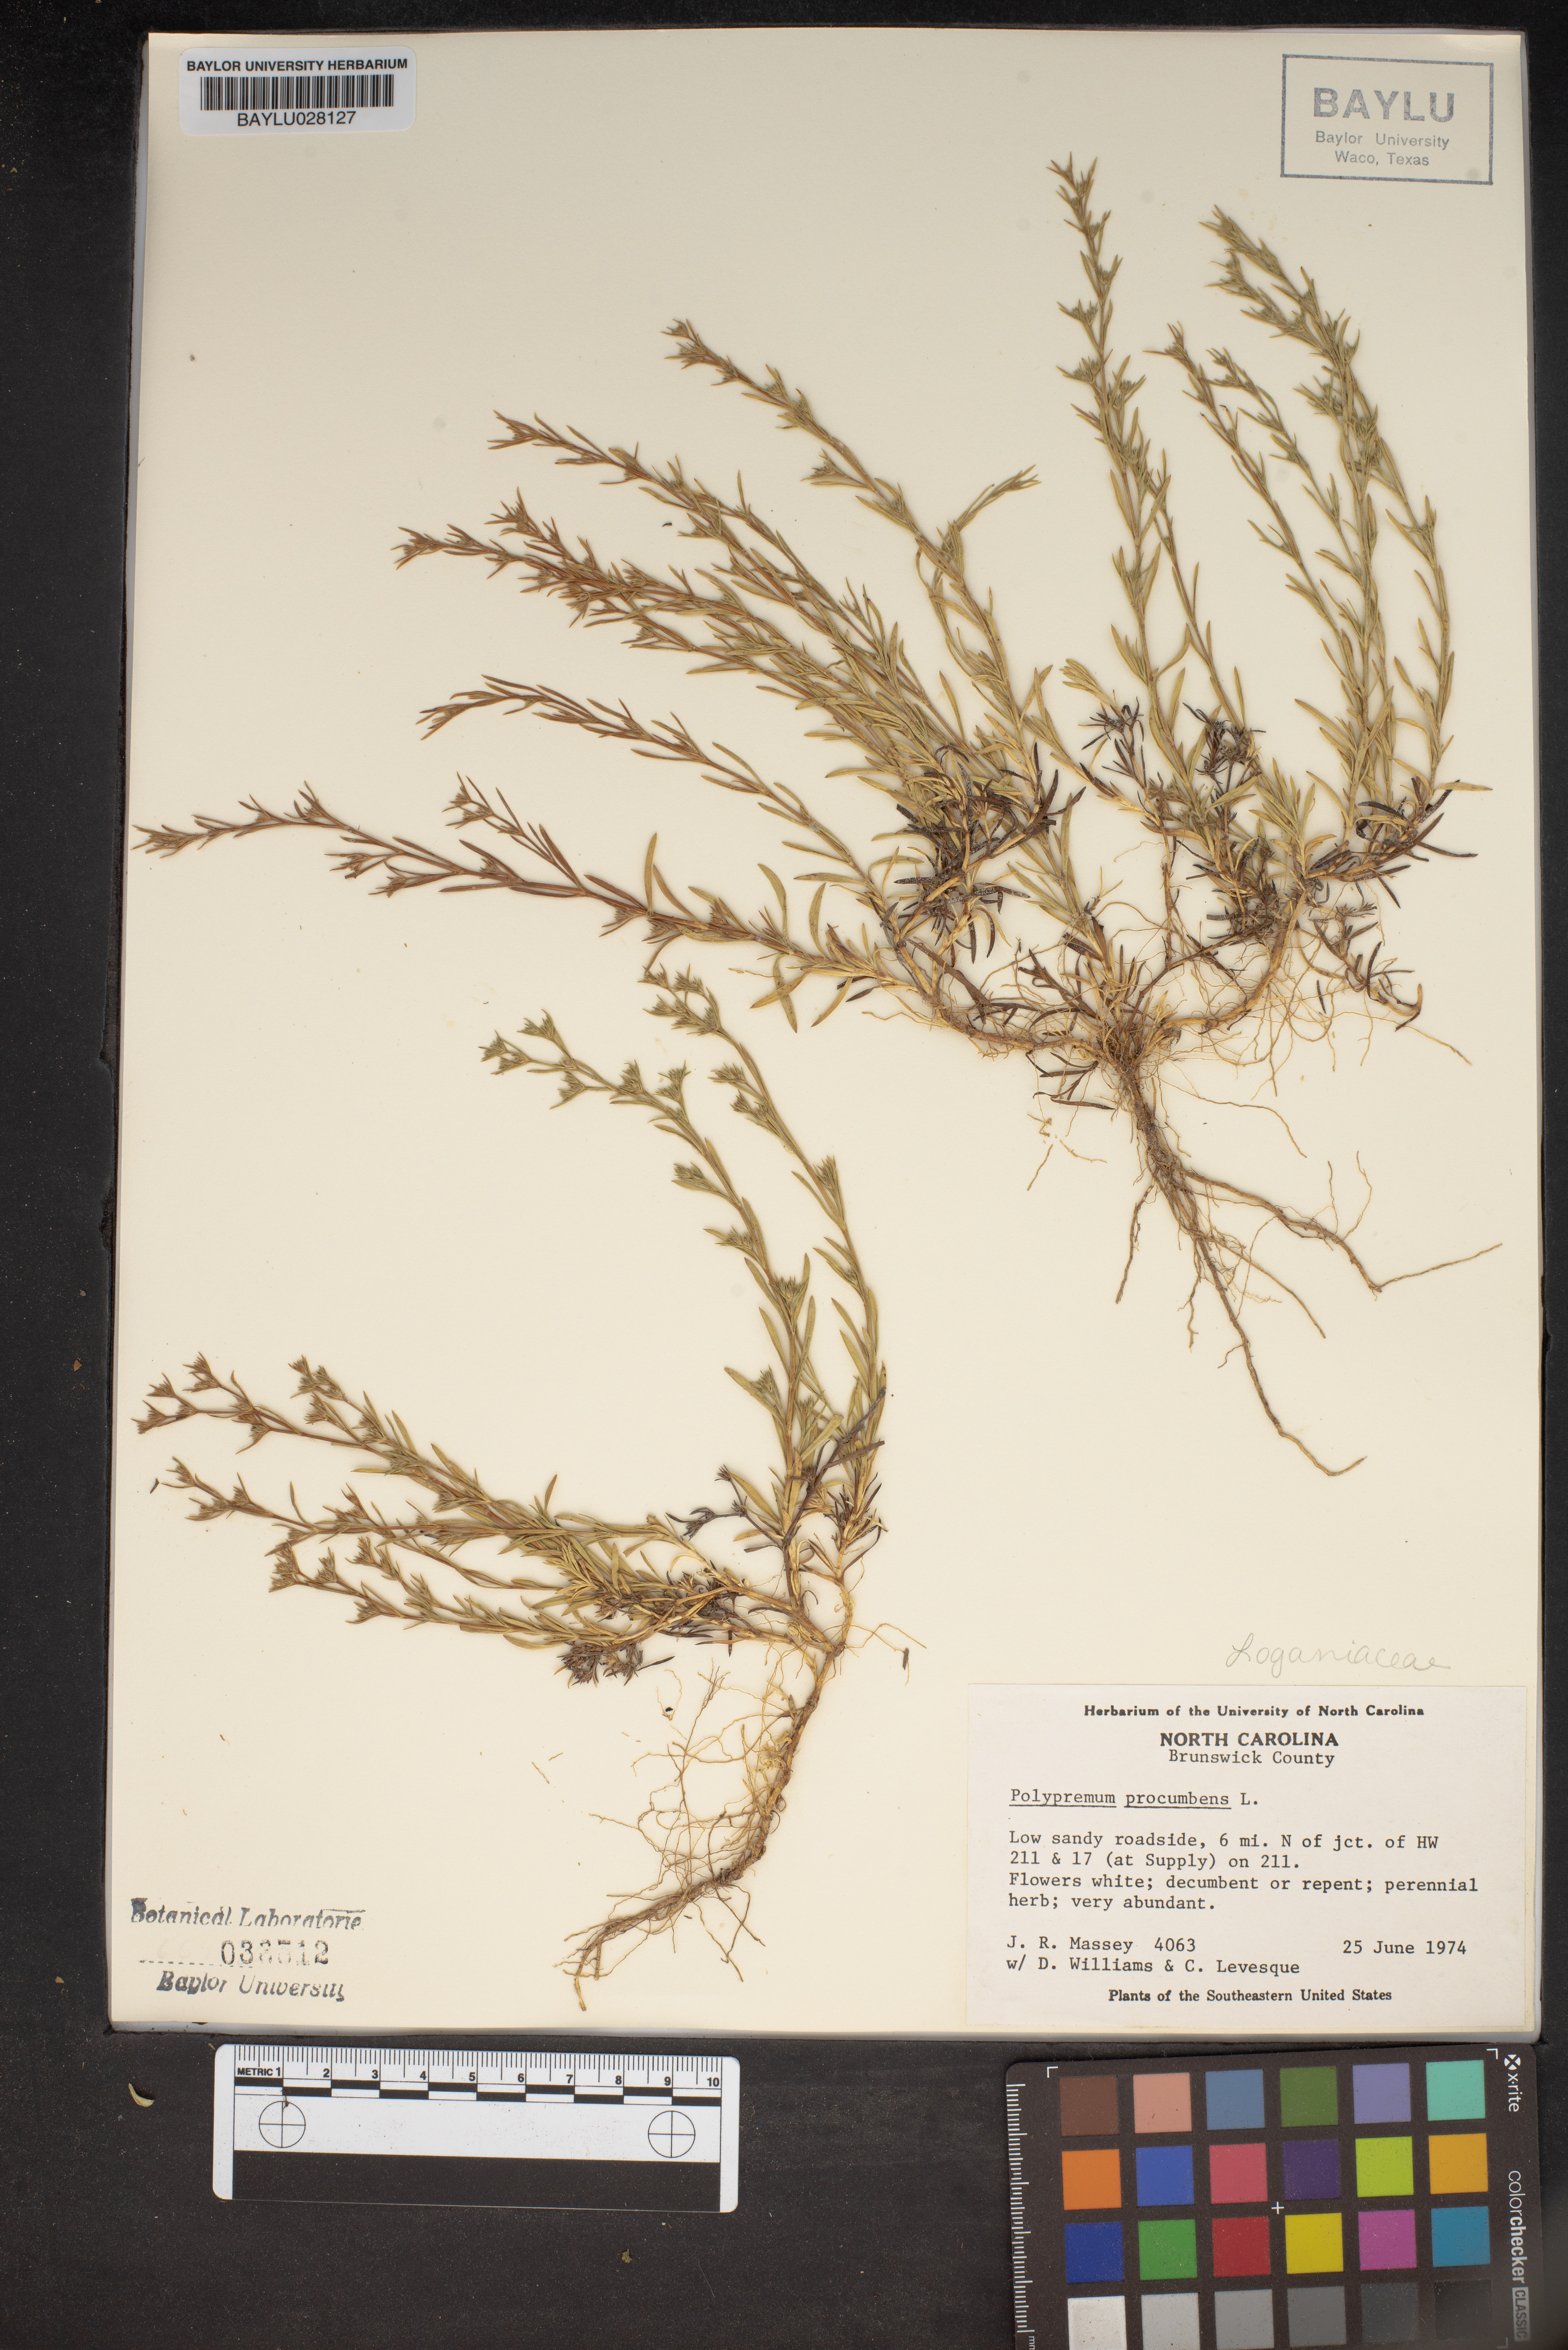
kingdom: Plantae
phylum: Tracheophyta
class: Magnoliopsida
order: Lamiales
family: Tetrachondraceae
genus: Polypremum
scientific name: Polypremum procumbens
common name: Juniper-leaf
